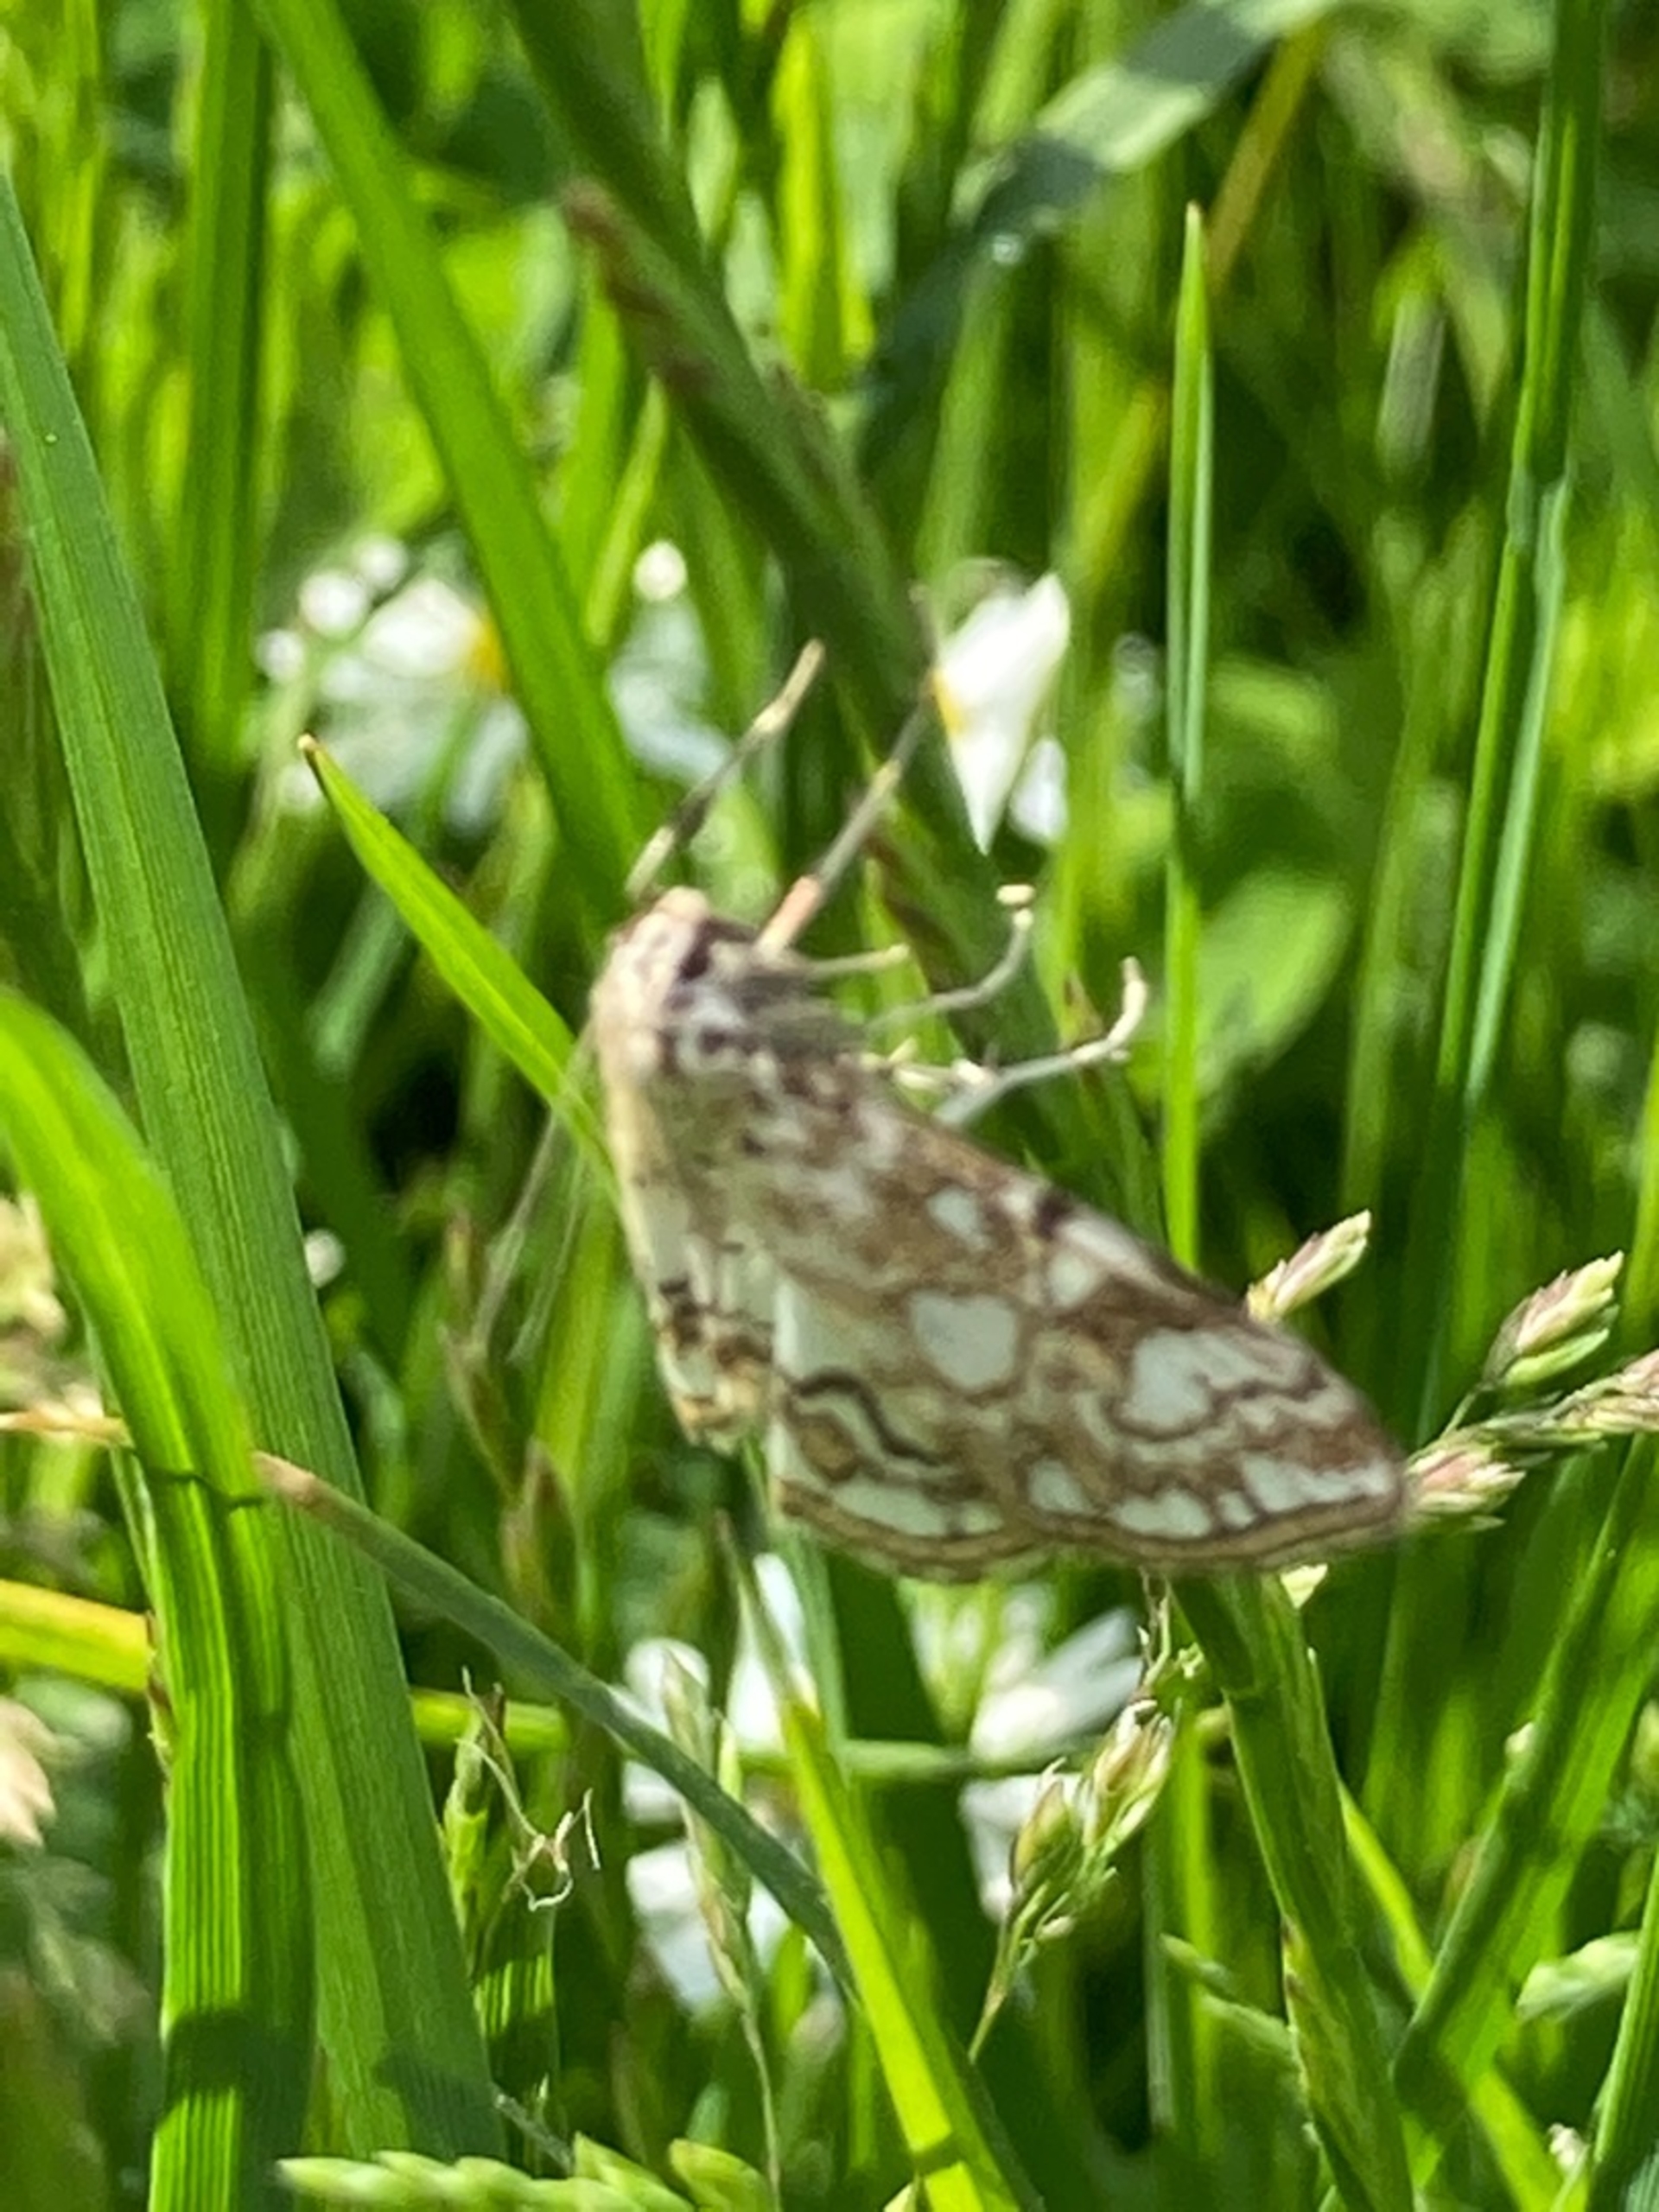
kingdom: Animalia
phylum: Arthropoda
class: Insecta
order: Lepidoptera
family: Crambidae
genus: Elophila
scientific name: Elophila nymphaeata
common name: Åkandehalvmøl
